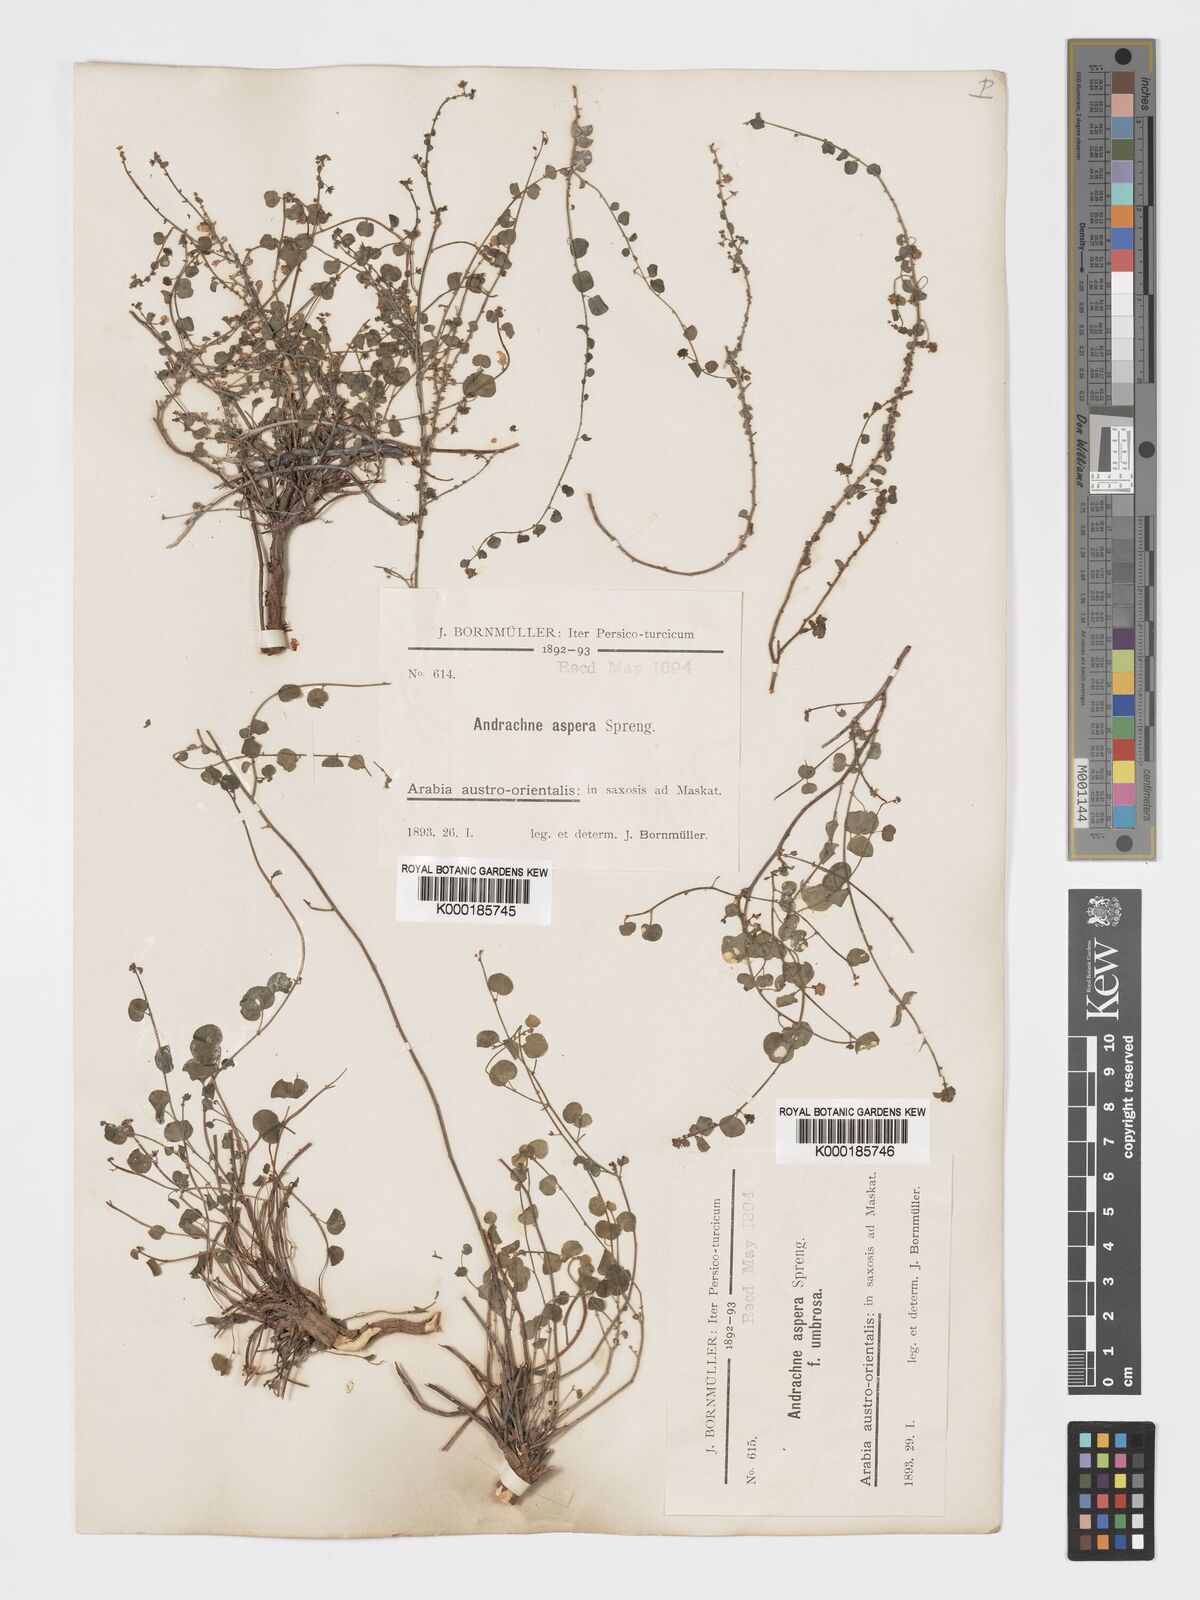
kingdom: Plantae
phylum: Tracheophyta
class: Magnoliopsida
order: Malpighiales
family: Phyllanthaceae
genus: Andrachne
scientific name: Andrachne aspera
